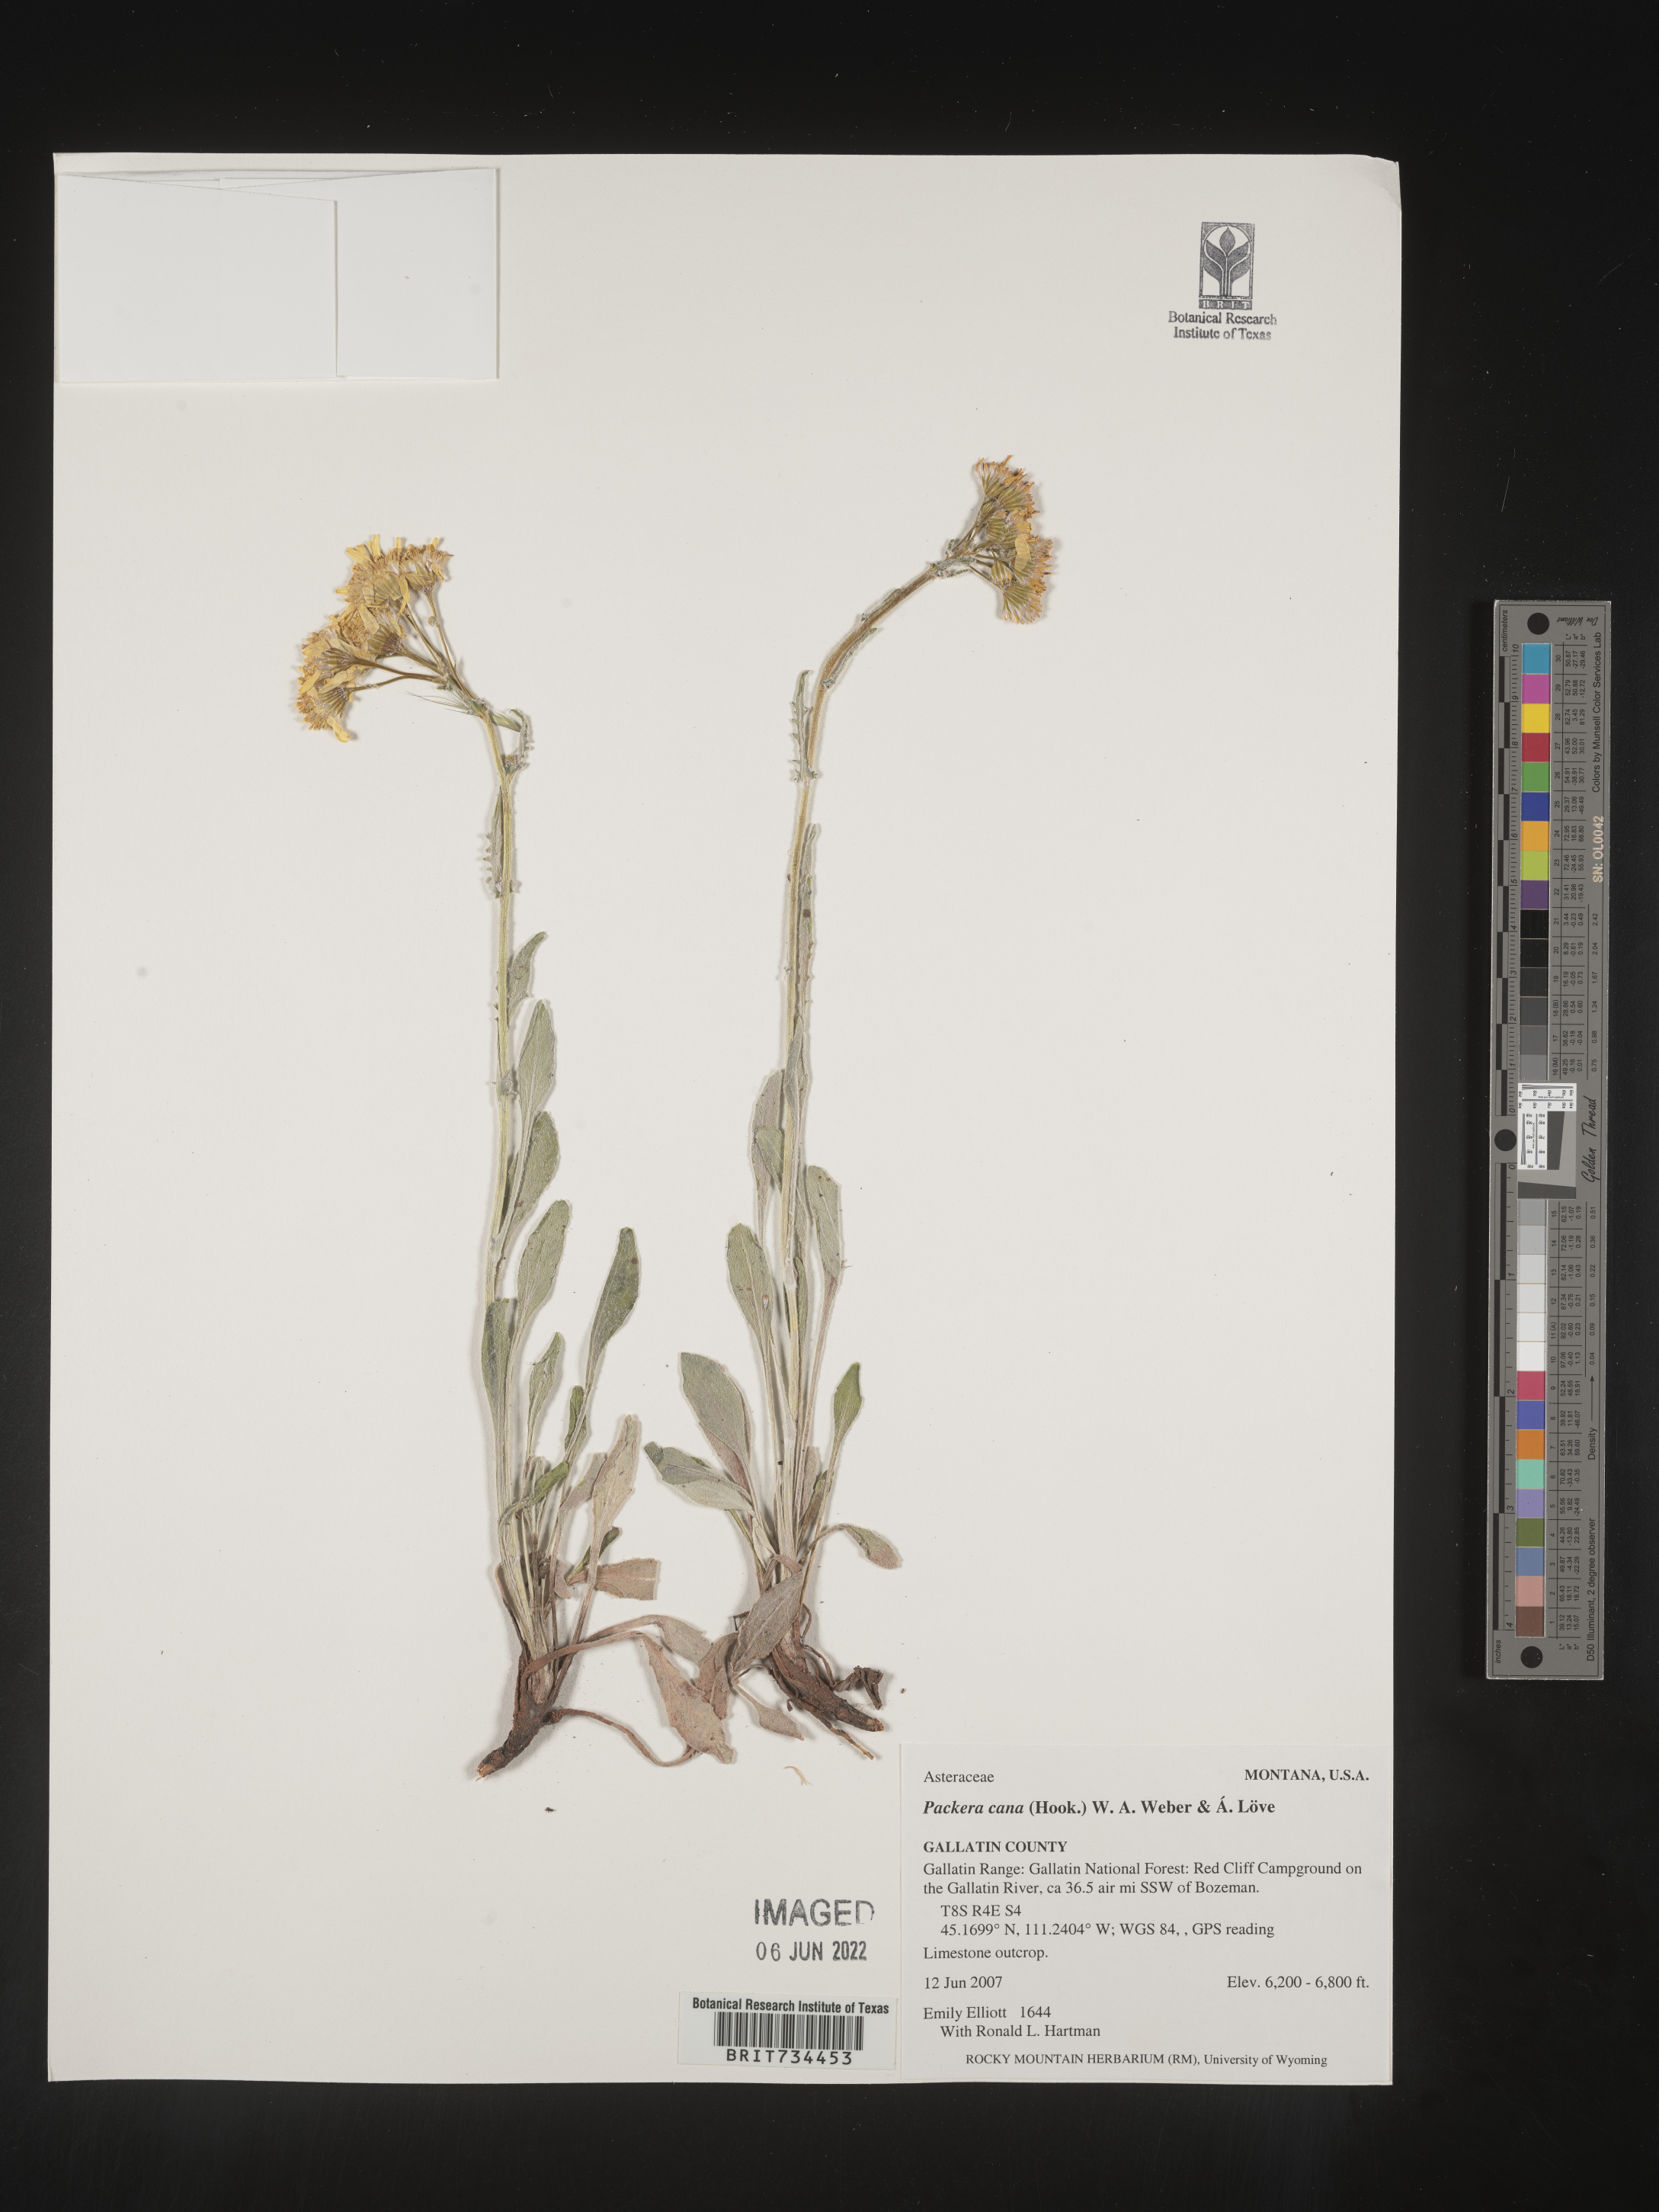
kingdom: Plantae
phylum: Tracheophyta
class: Magnoliopsida
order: Asterales
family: Asteraceae
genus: Packera
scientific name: Packera cana
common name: Woolly groundsel
